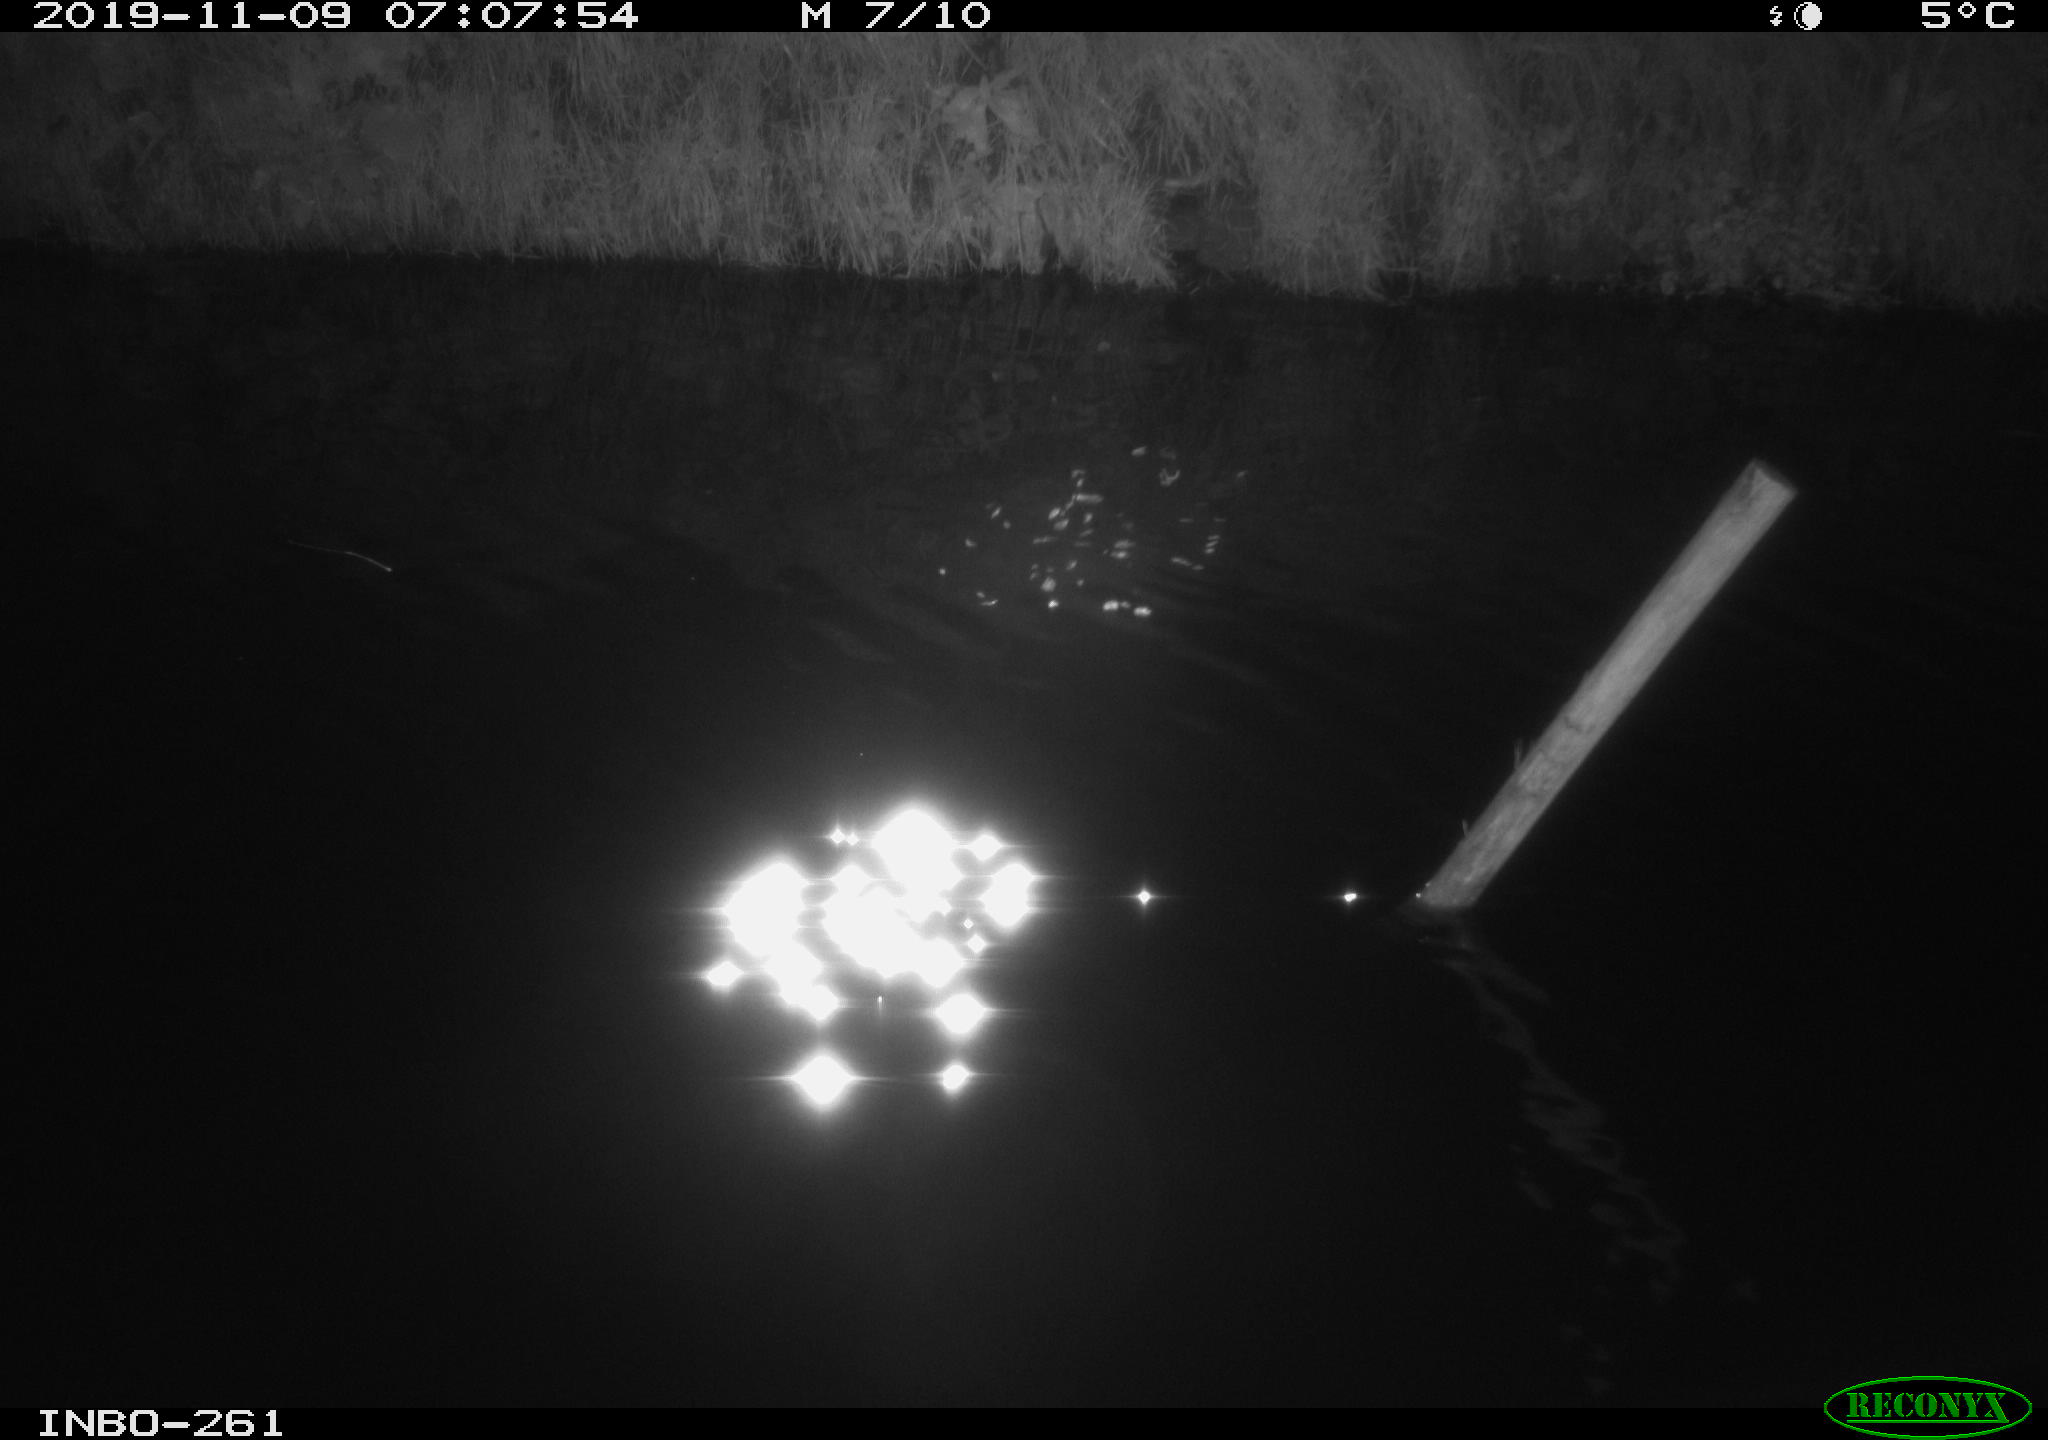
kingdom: Animalia
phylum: Chordata
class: Aves
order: Anseriformes
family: Anatidae
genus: Anas
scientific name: Anas platyrhynchos
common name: Mallard
